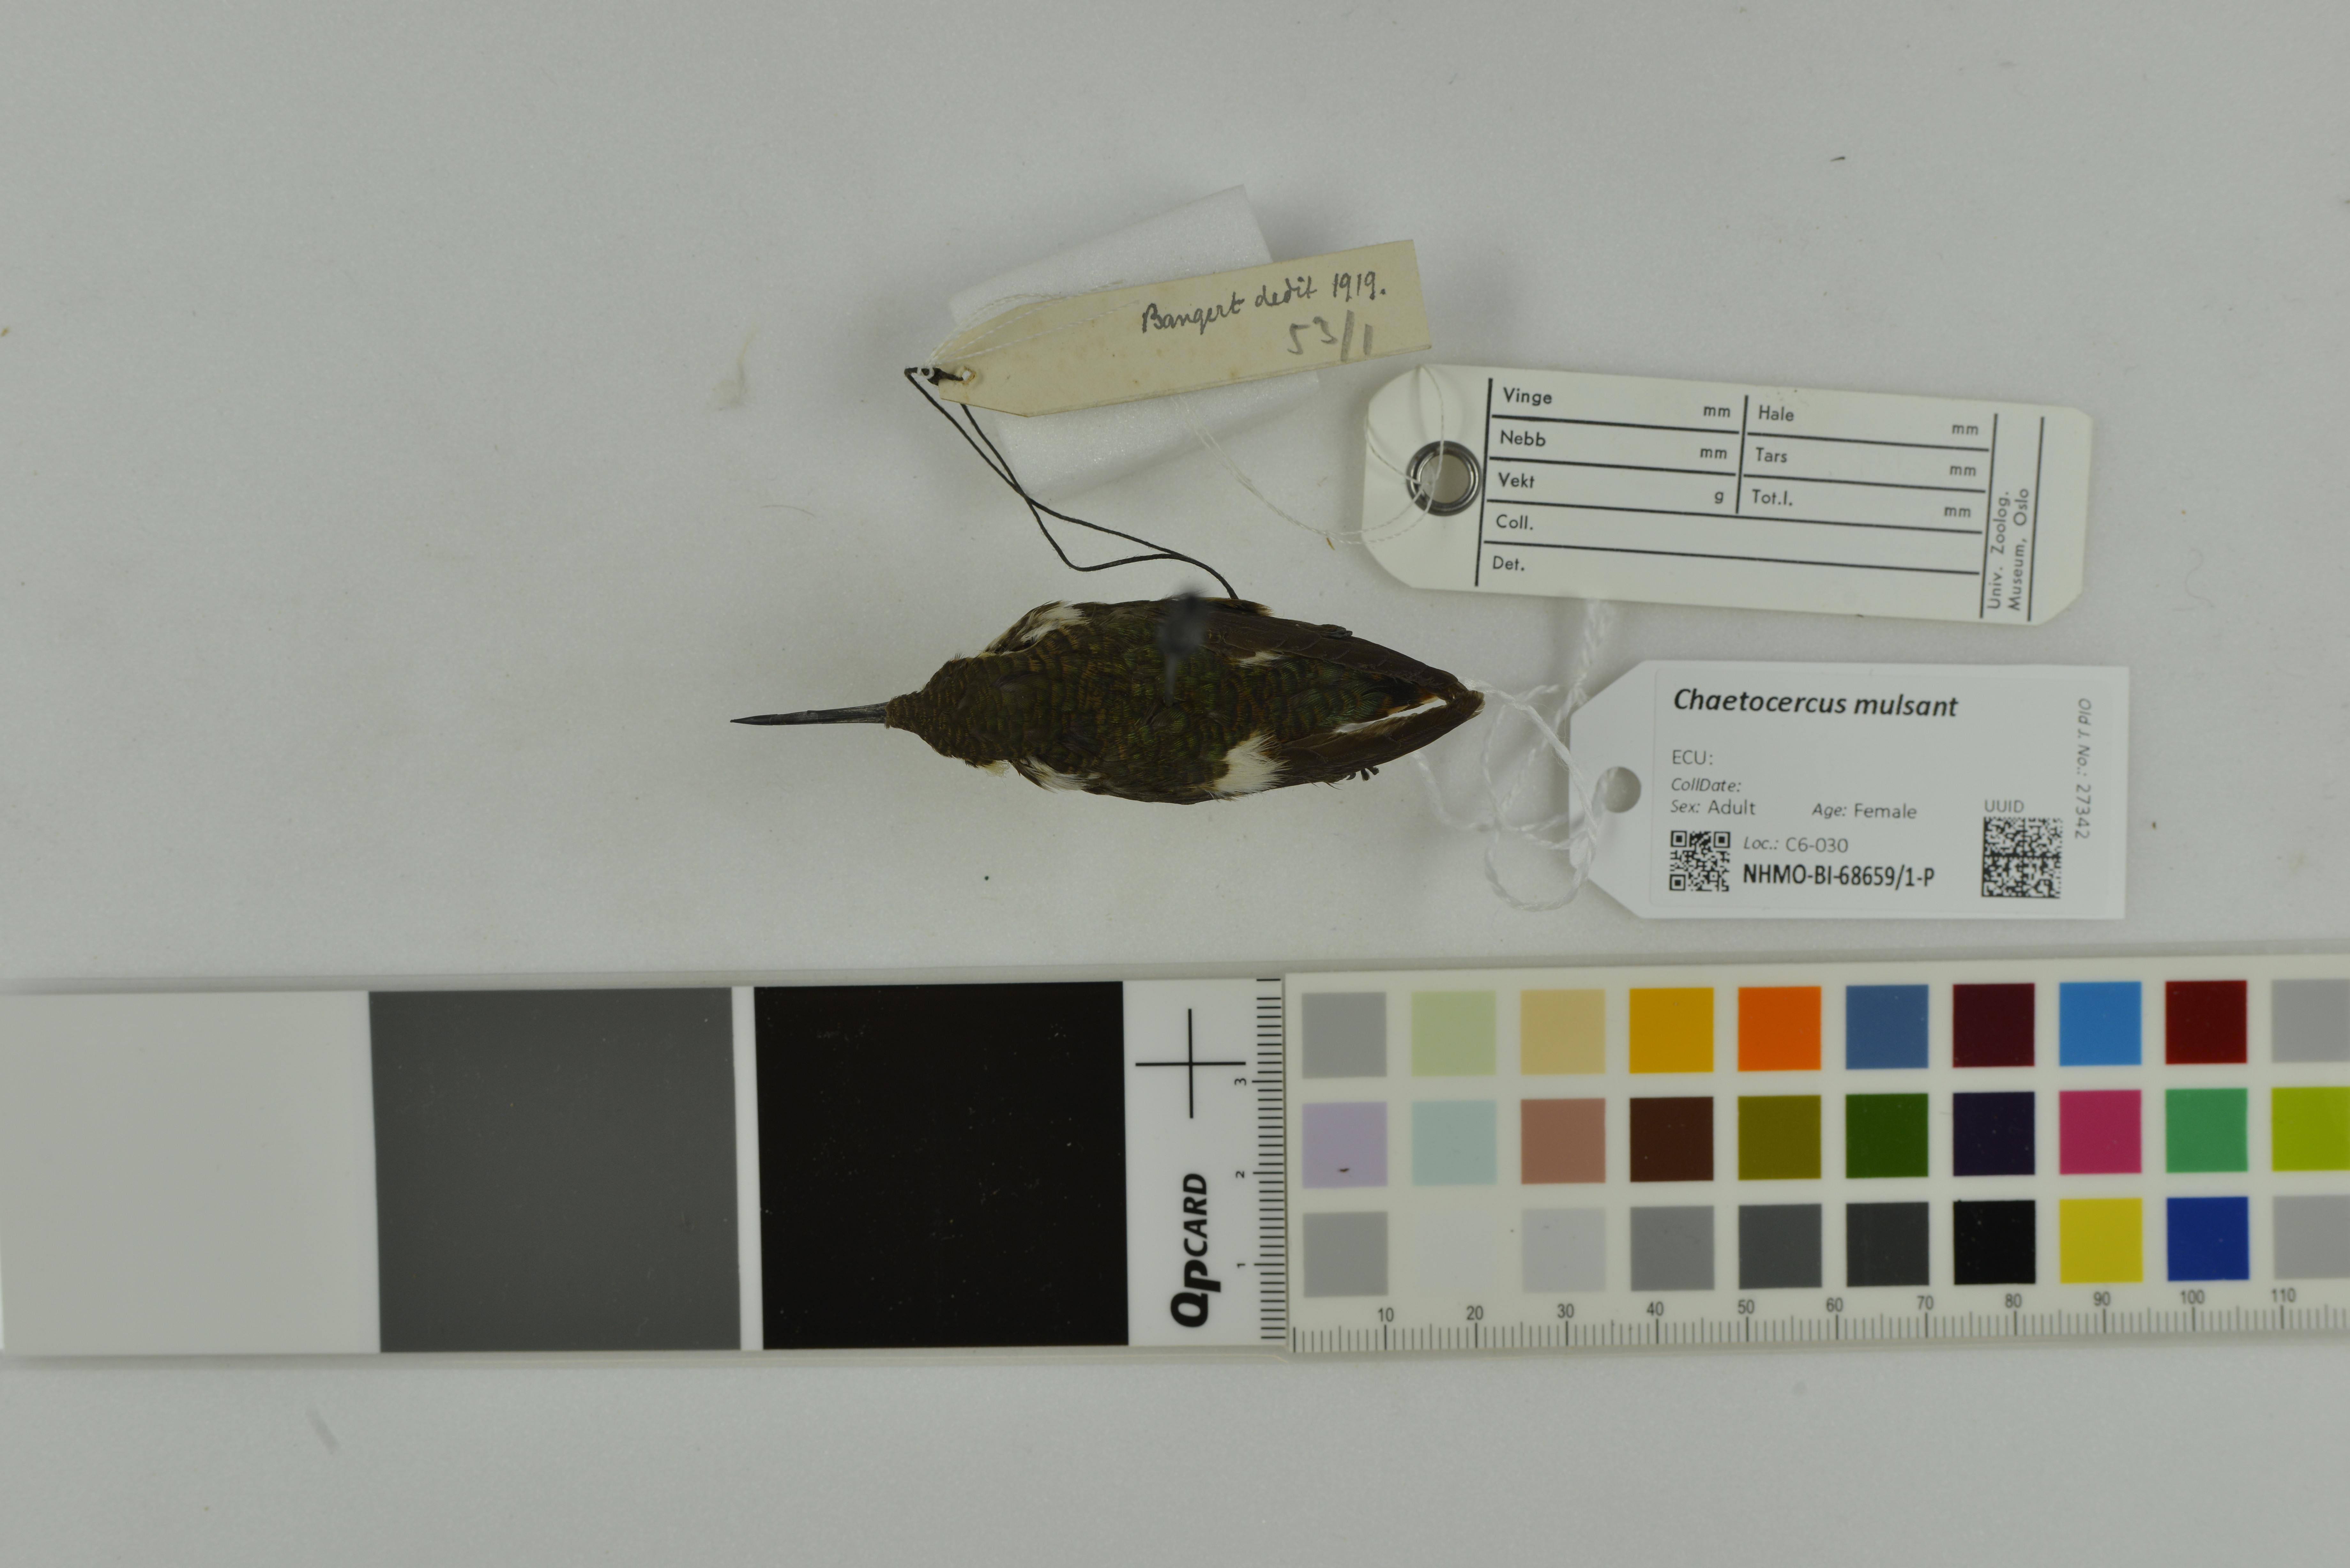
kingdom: Animalia
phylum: Chordata
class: Aves
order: Apodiformes
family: Trochilidae
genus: Chaetocercus
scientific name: Chaetocercus mulsant
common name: White-bellied woodstar
